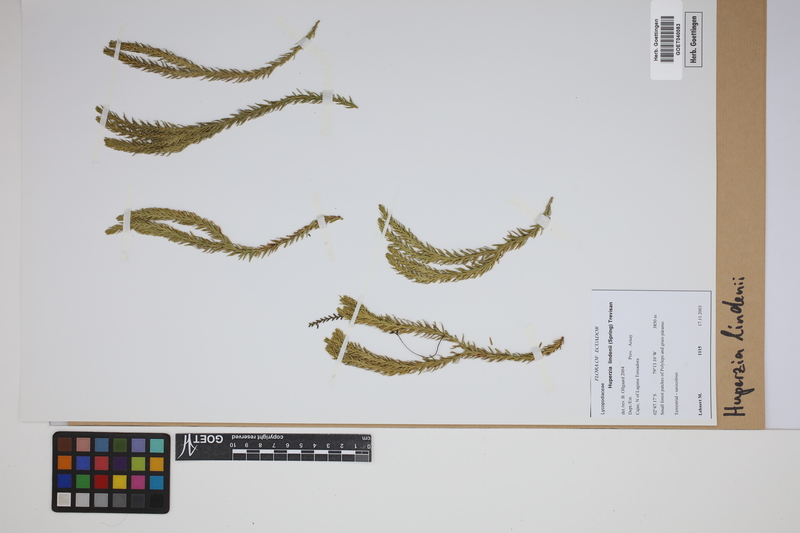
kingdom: Plantae
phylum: Tracheophyta
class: Lycopodiopsida
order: Lycopodiales
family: Lycopodiaceae
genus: Phlegmariurus
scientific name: Phlegmariurus lindenii
